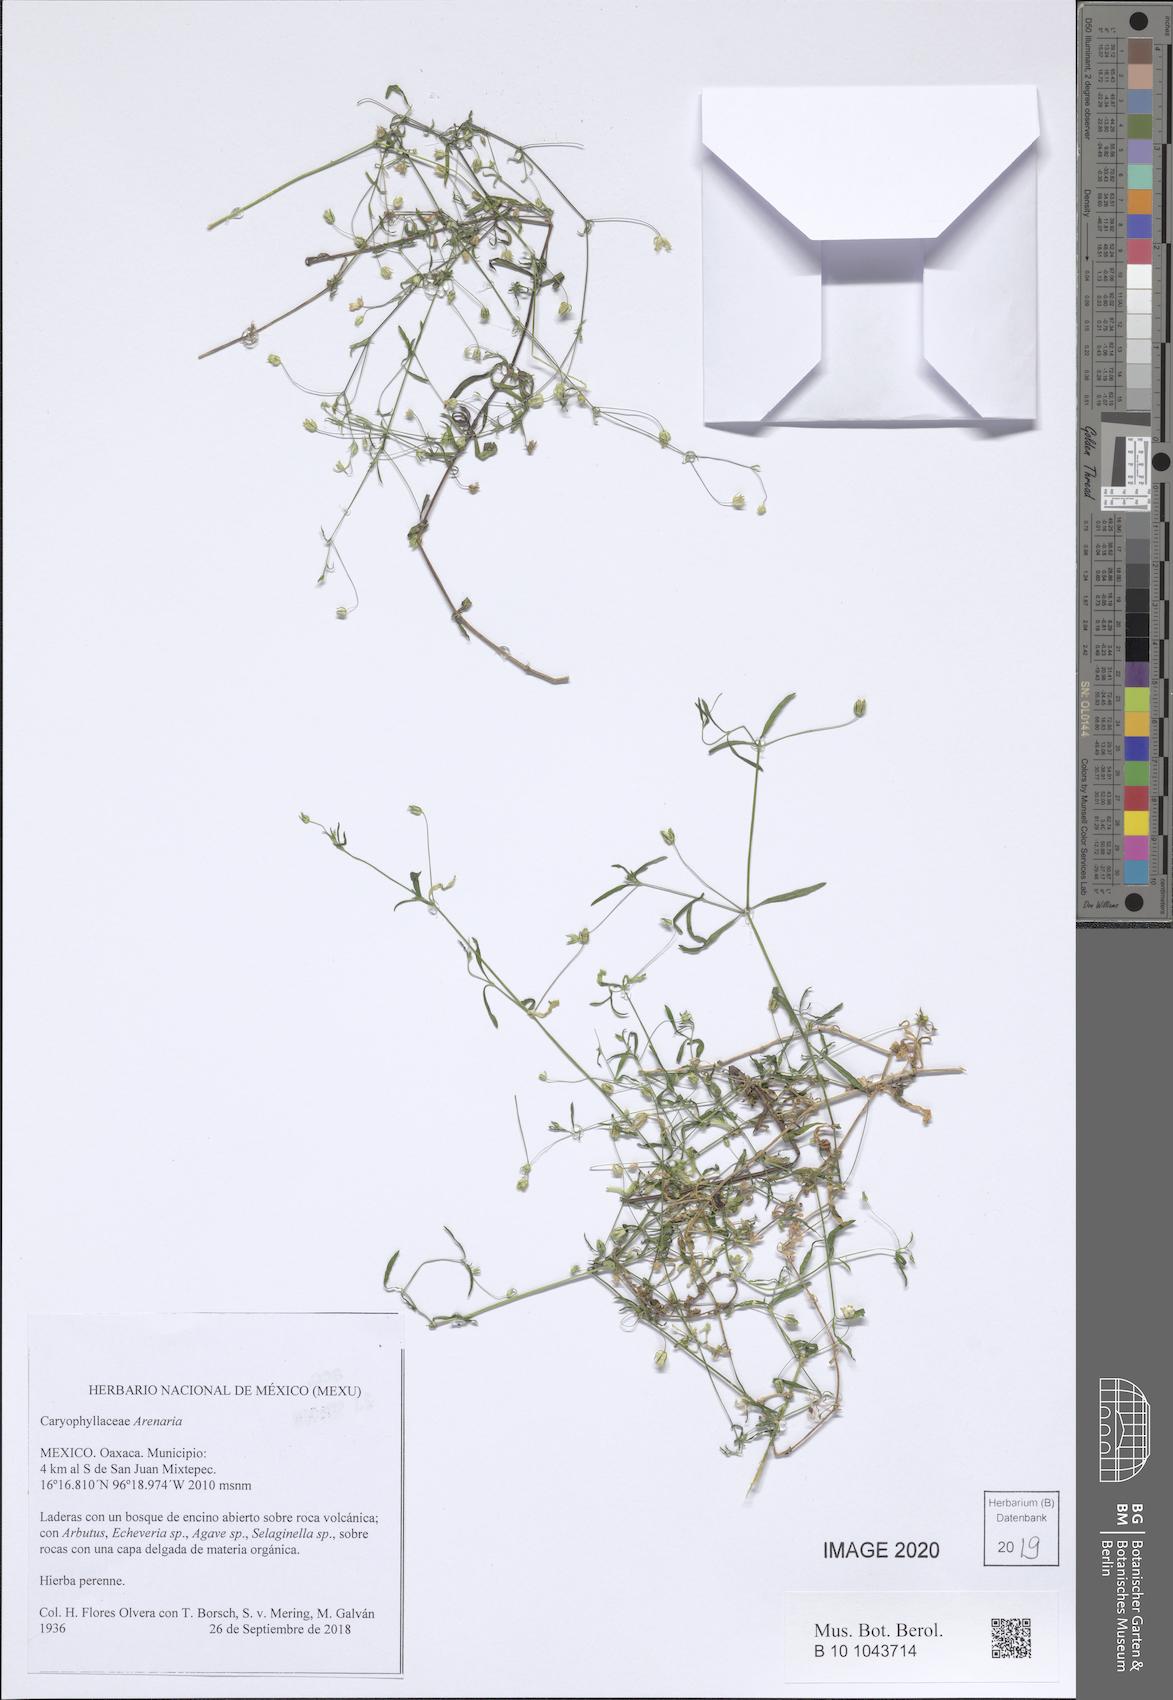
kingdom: Plantae
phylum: Tracheophyta
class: Magnoliopsida
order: Caryophyllales
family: Caryophyllaceae
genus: Arenaria
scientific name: Arenaria
